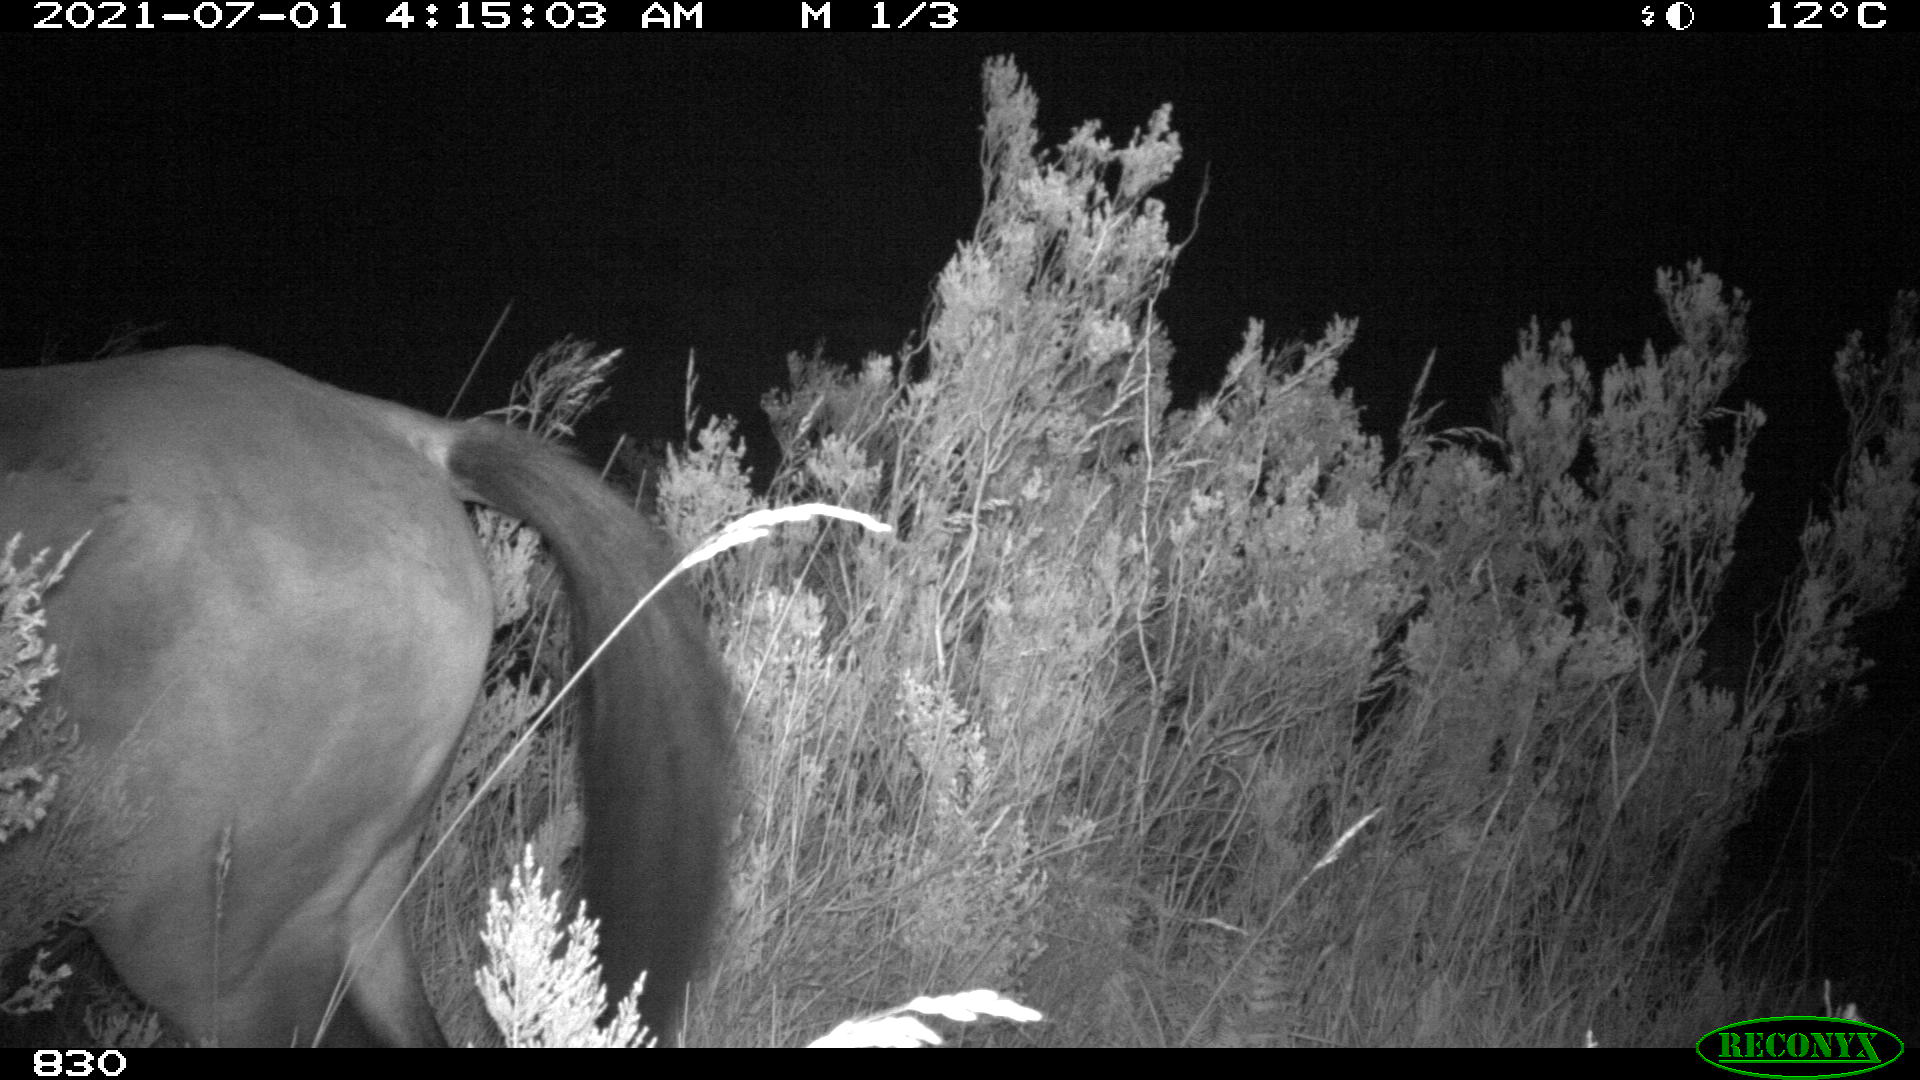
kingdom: Animalia
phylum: Chordata
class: Mammalia
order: Perissodactyla
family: Equidae
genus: Equus
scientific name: Equus caballus
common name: Horse
